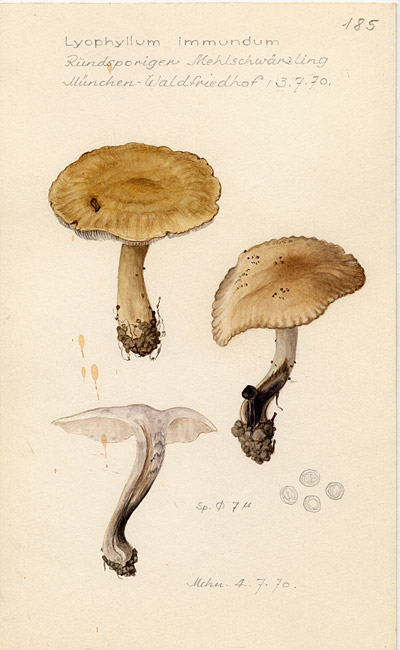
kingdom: Fungi
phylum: Basidiomycota
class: Agaricomycetes
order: Agaricales
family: Lyophyllaceae
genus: Lyophyllum
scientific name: Lyophyllum immundum
